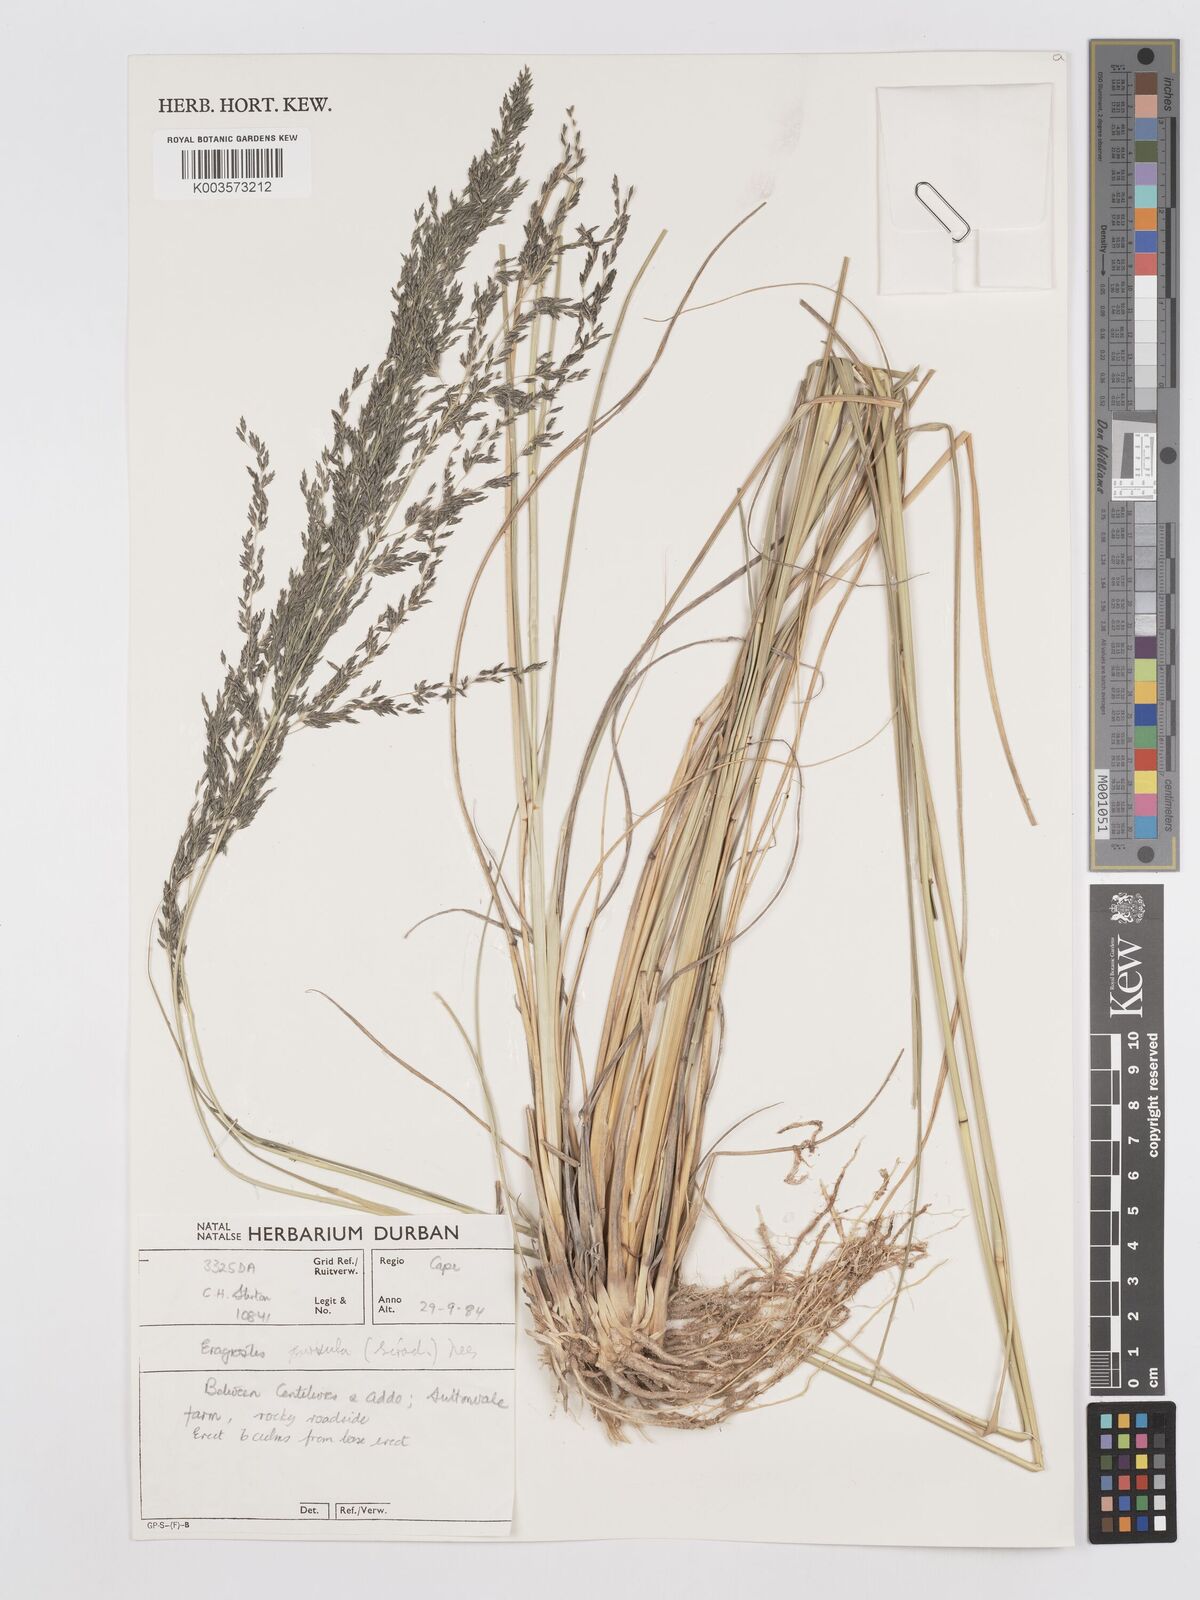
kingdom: Plantae
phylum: Tracheophyta
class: Liliopsida
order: Poales
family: Poaceae
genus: Eragrostis
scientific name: Eragrostis curvula
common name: African love-grass
